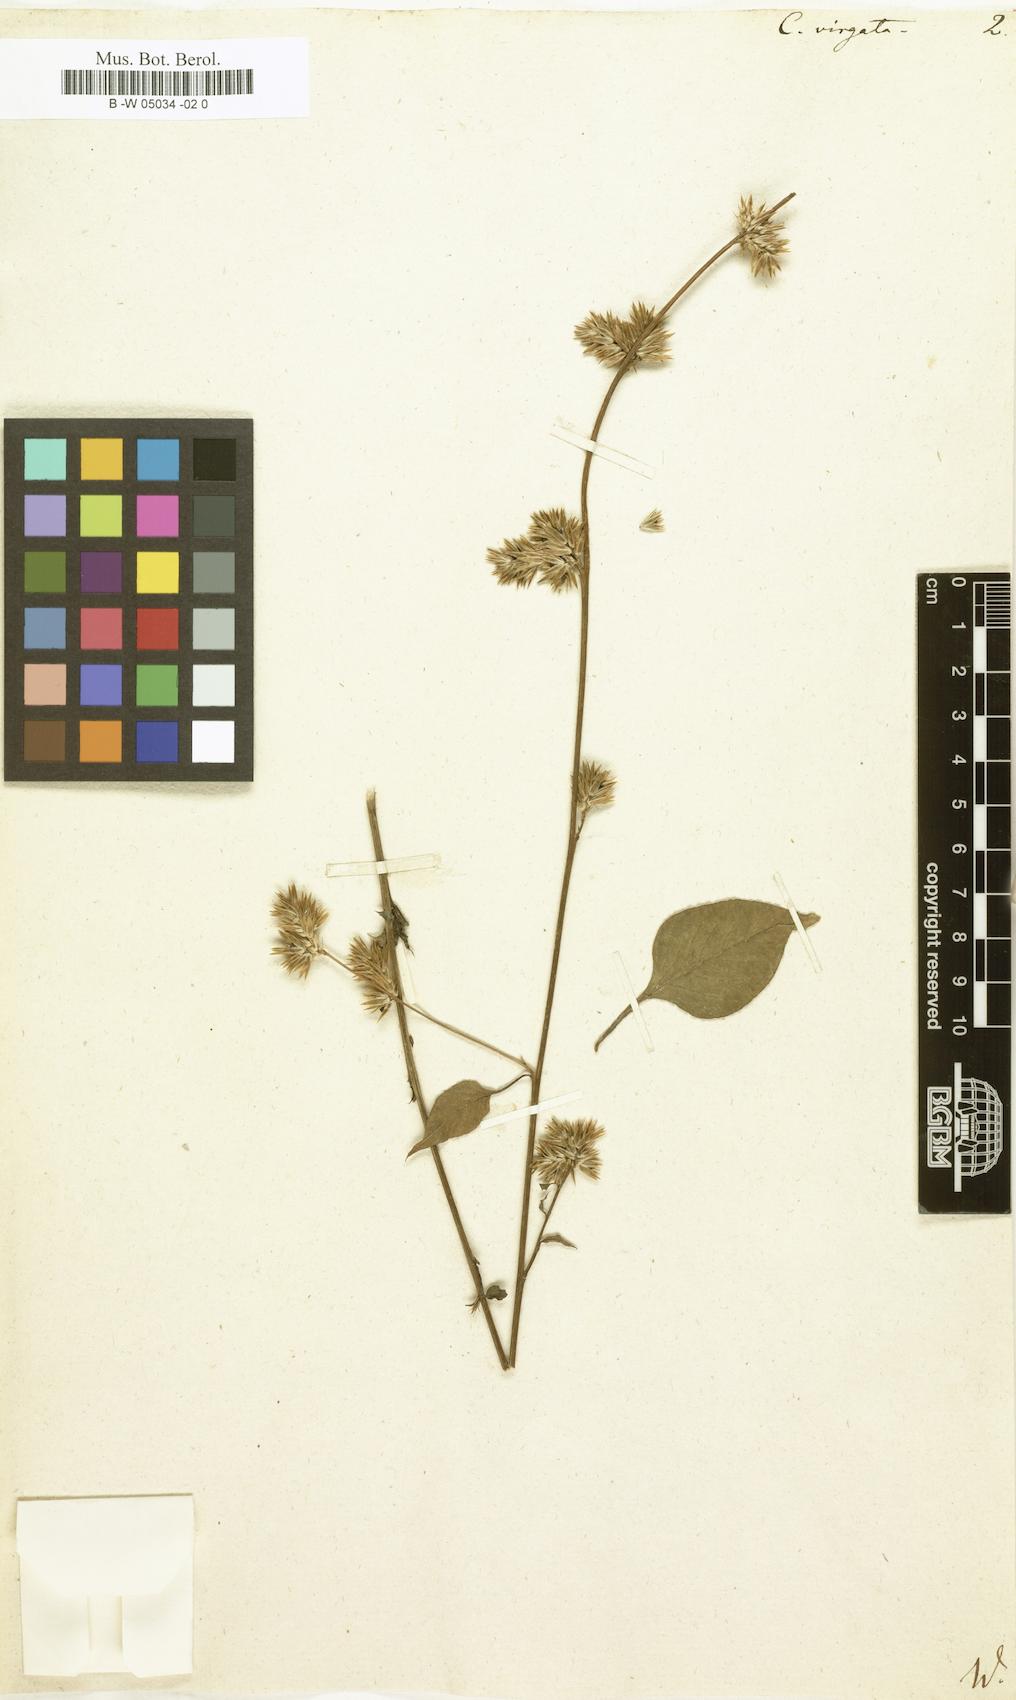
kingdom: Plantae
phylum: Tracheophyta
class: Magnoliopsida
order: Caryophyllales
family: Amaranthaceae
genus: Celosia
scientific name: Celosia virgata
